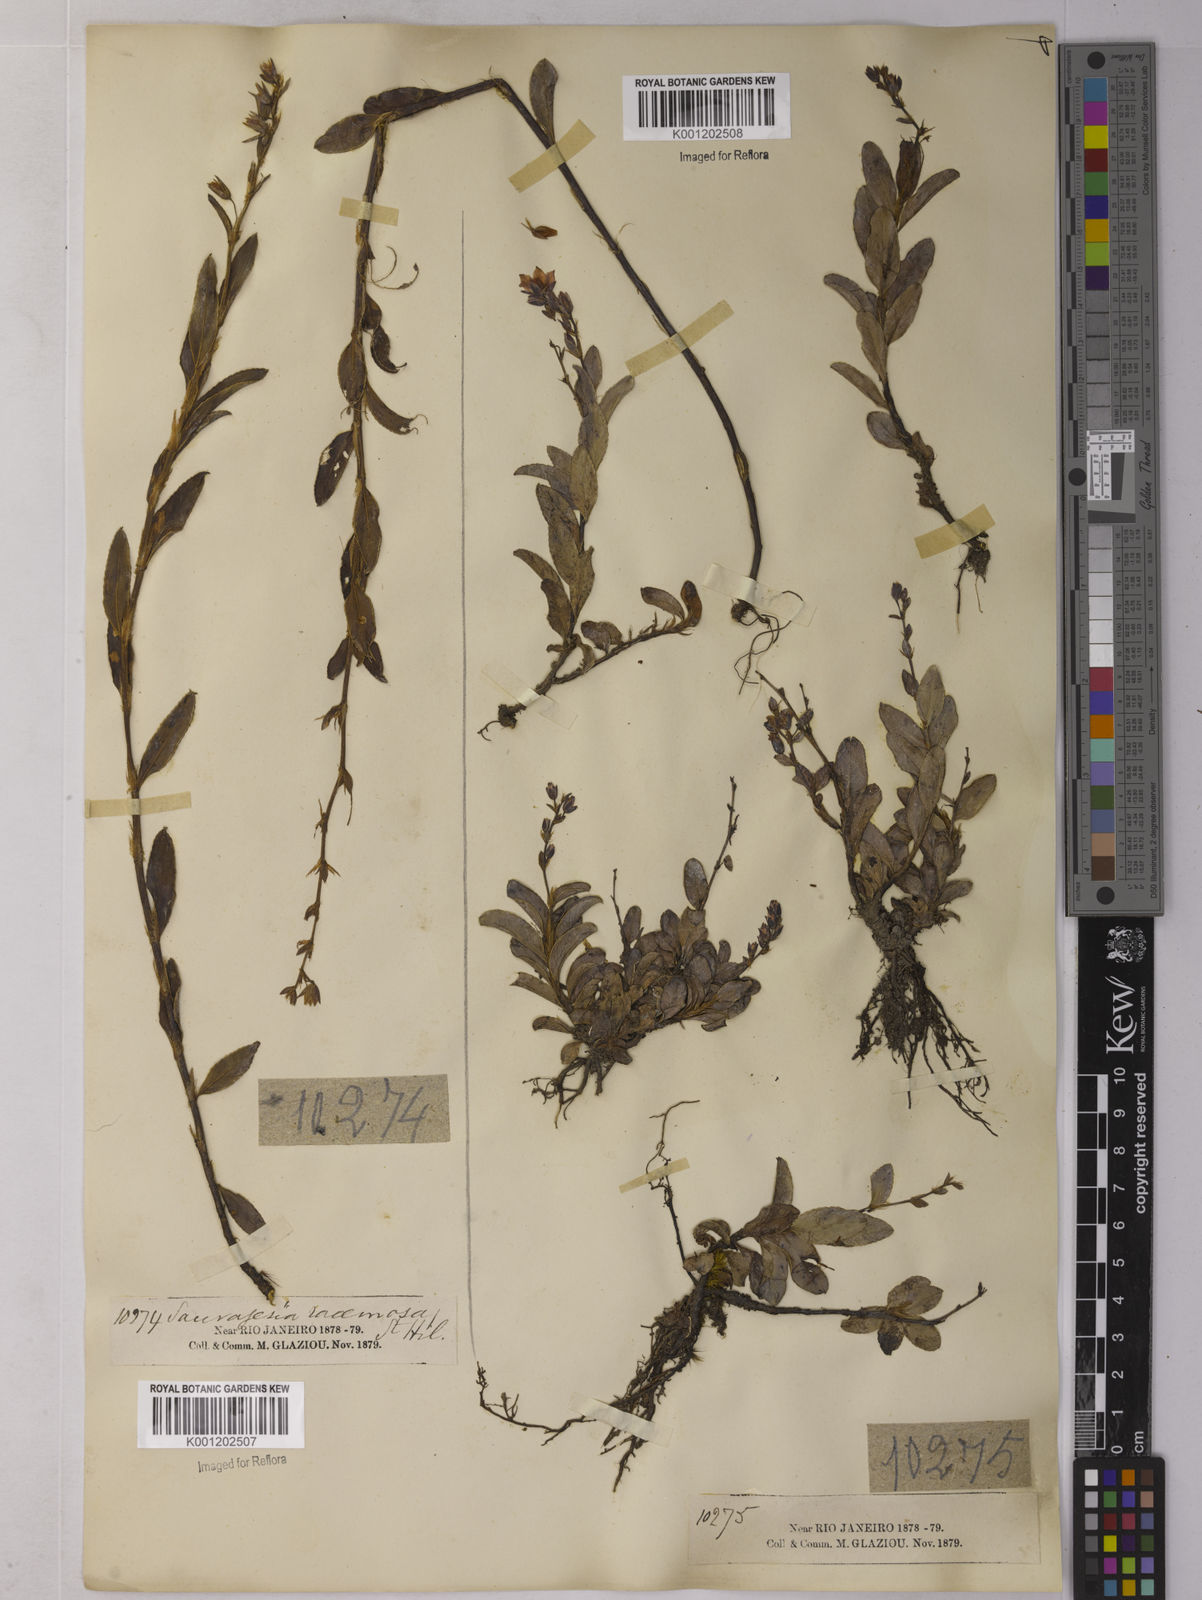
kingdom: Plantae
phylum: Tracheophyta
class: Magnoliopsida
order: Malpighiales
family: Ochnaceae
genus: Sauvagesia
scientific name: Sauvagesia racemosa
